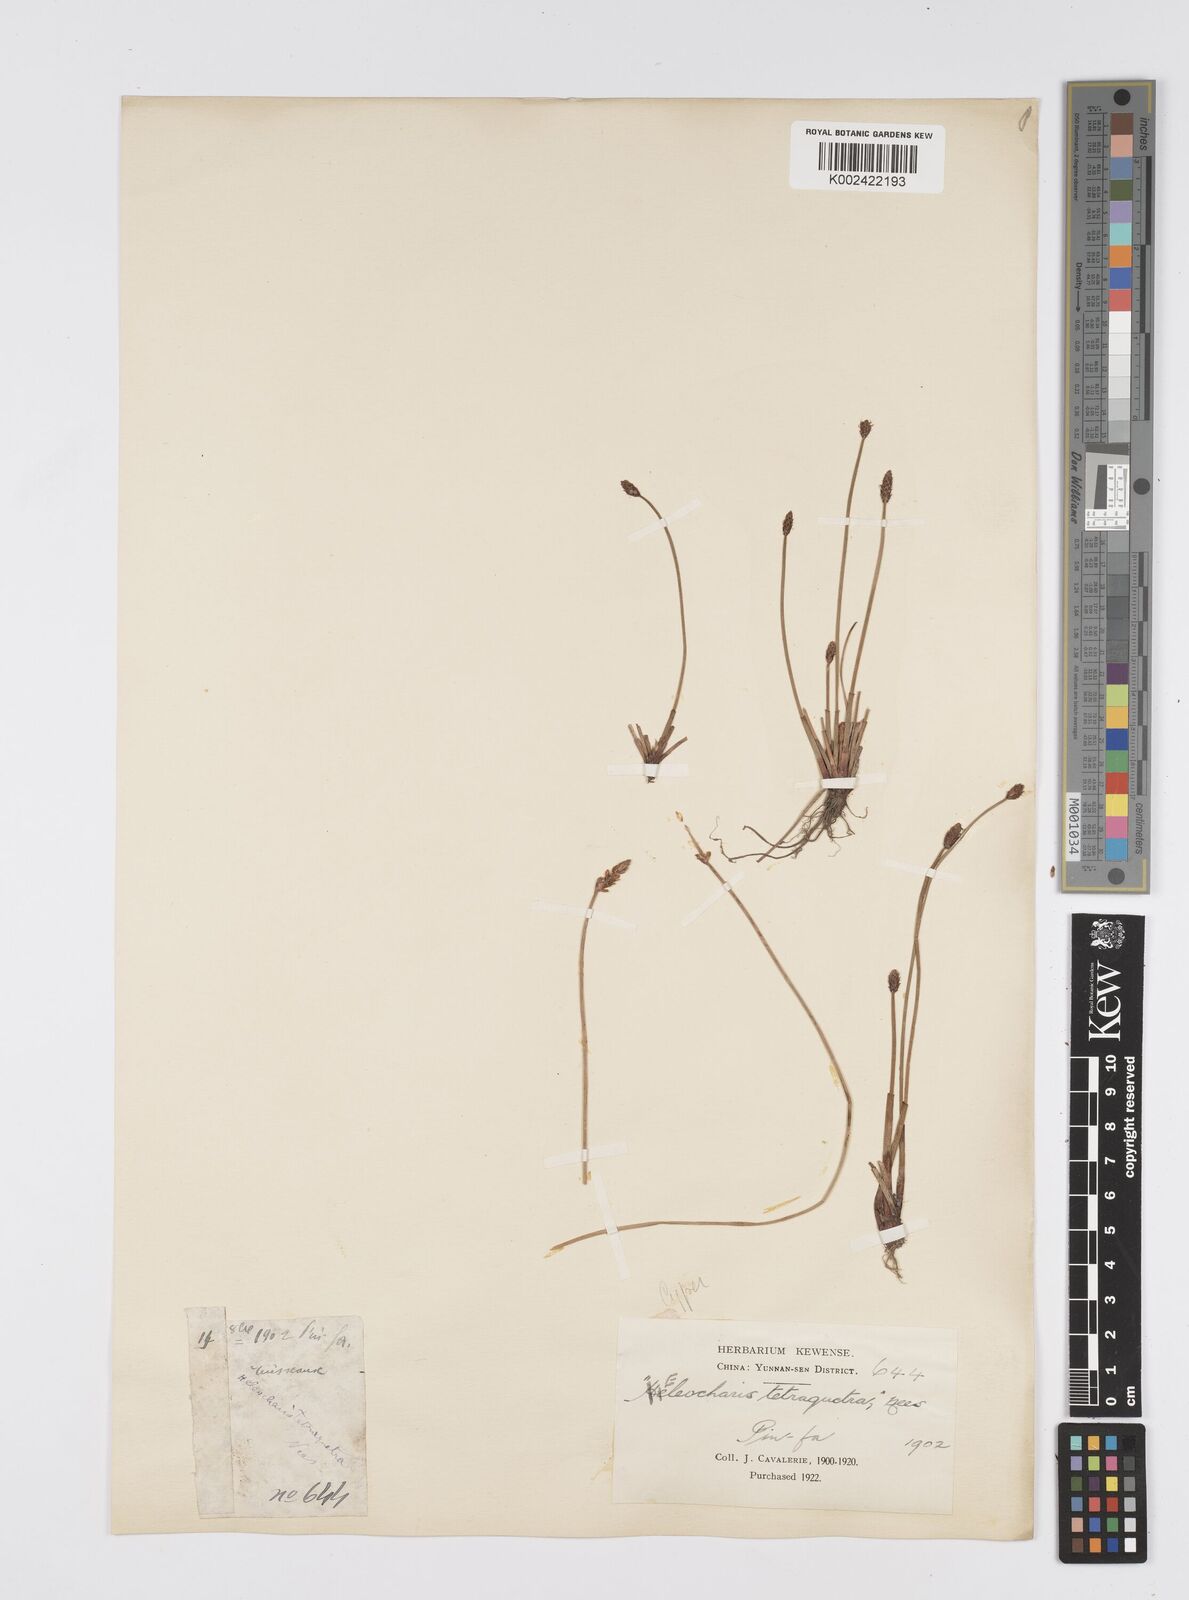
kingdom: Plantae
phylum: Tracheophyta
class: Liliopsida
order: Poales
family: Cyperaceae
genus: Eleocharis
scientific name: Eleocharis tetraquetra
